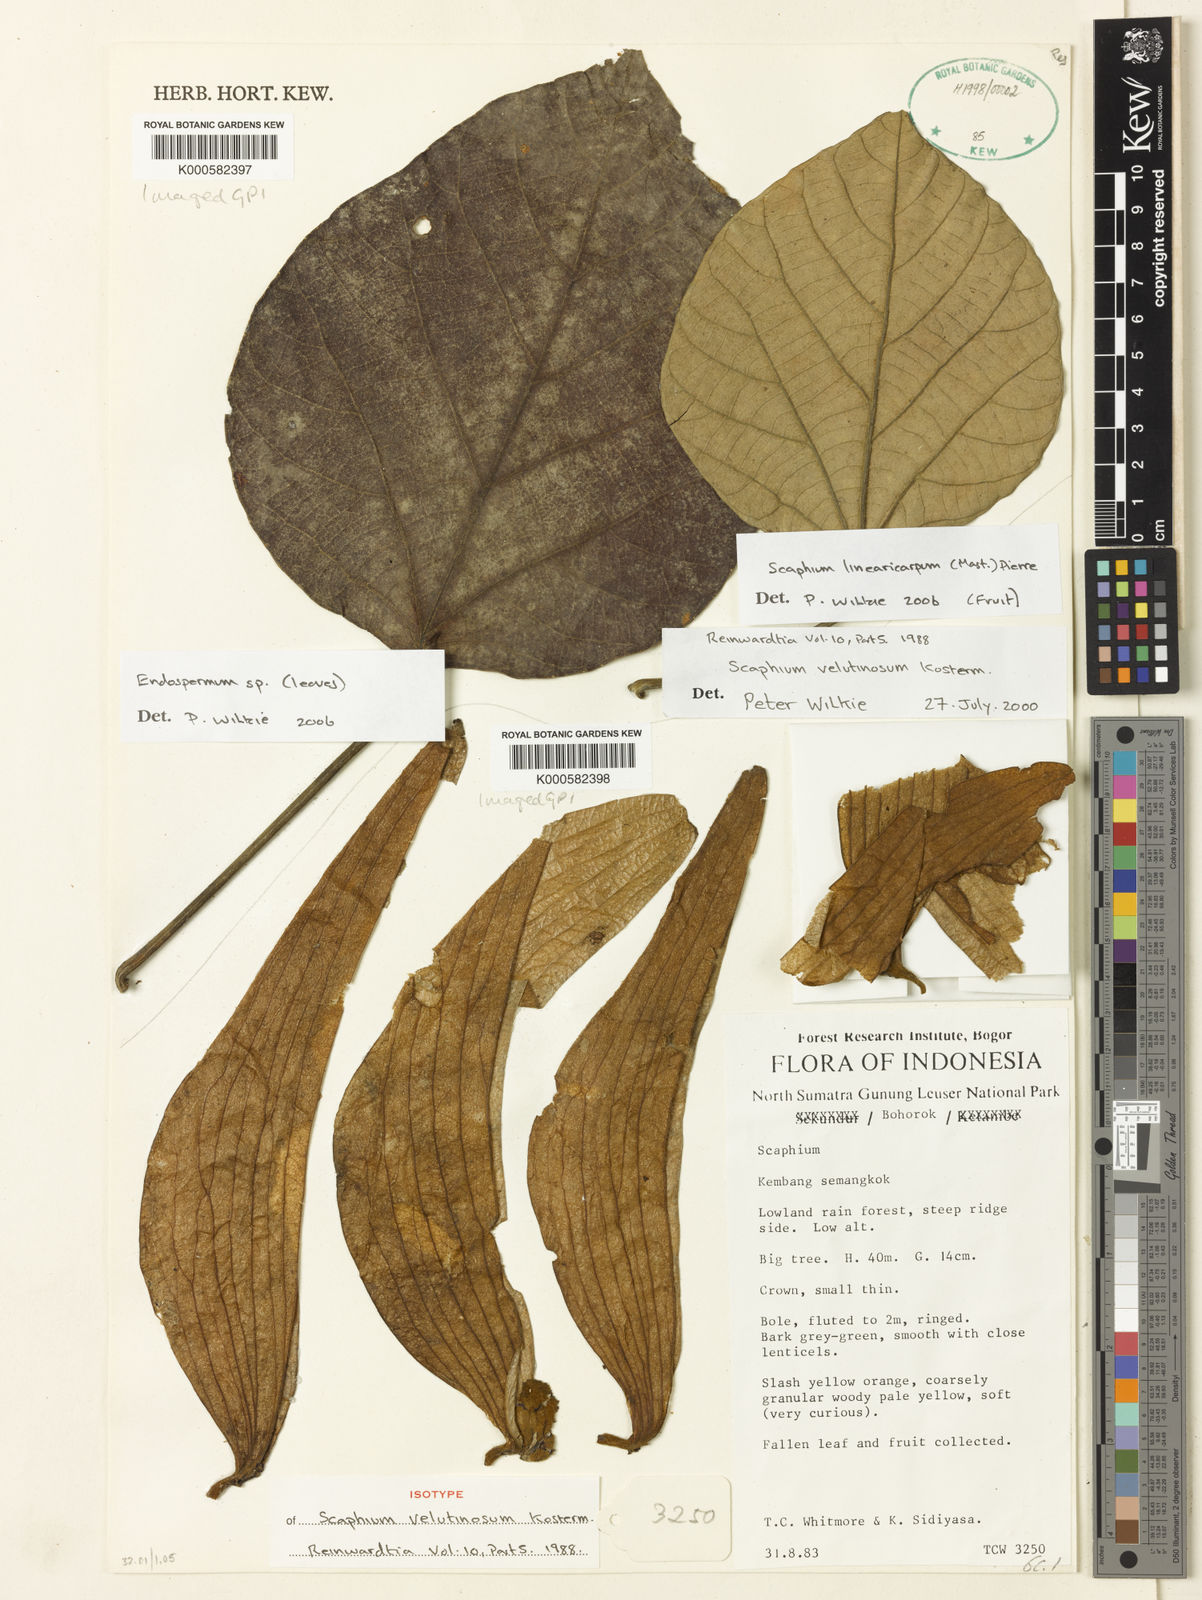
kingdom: Plantae
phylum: Tracheophyta
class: Magnoliopsida
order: Malvales
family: Malvaceae
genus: Scaphium
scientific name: Scaphium linearicarpum
